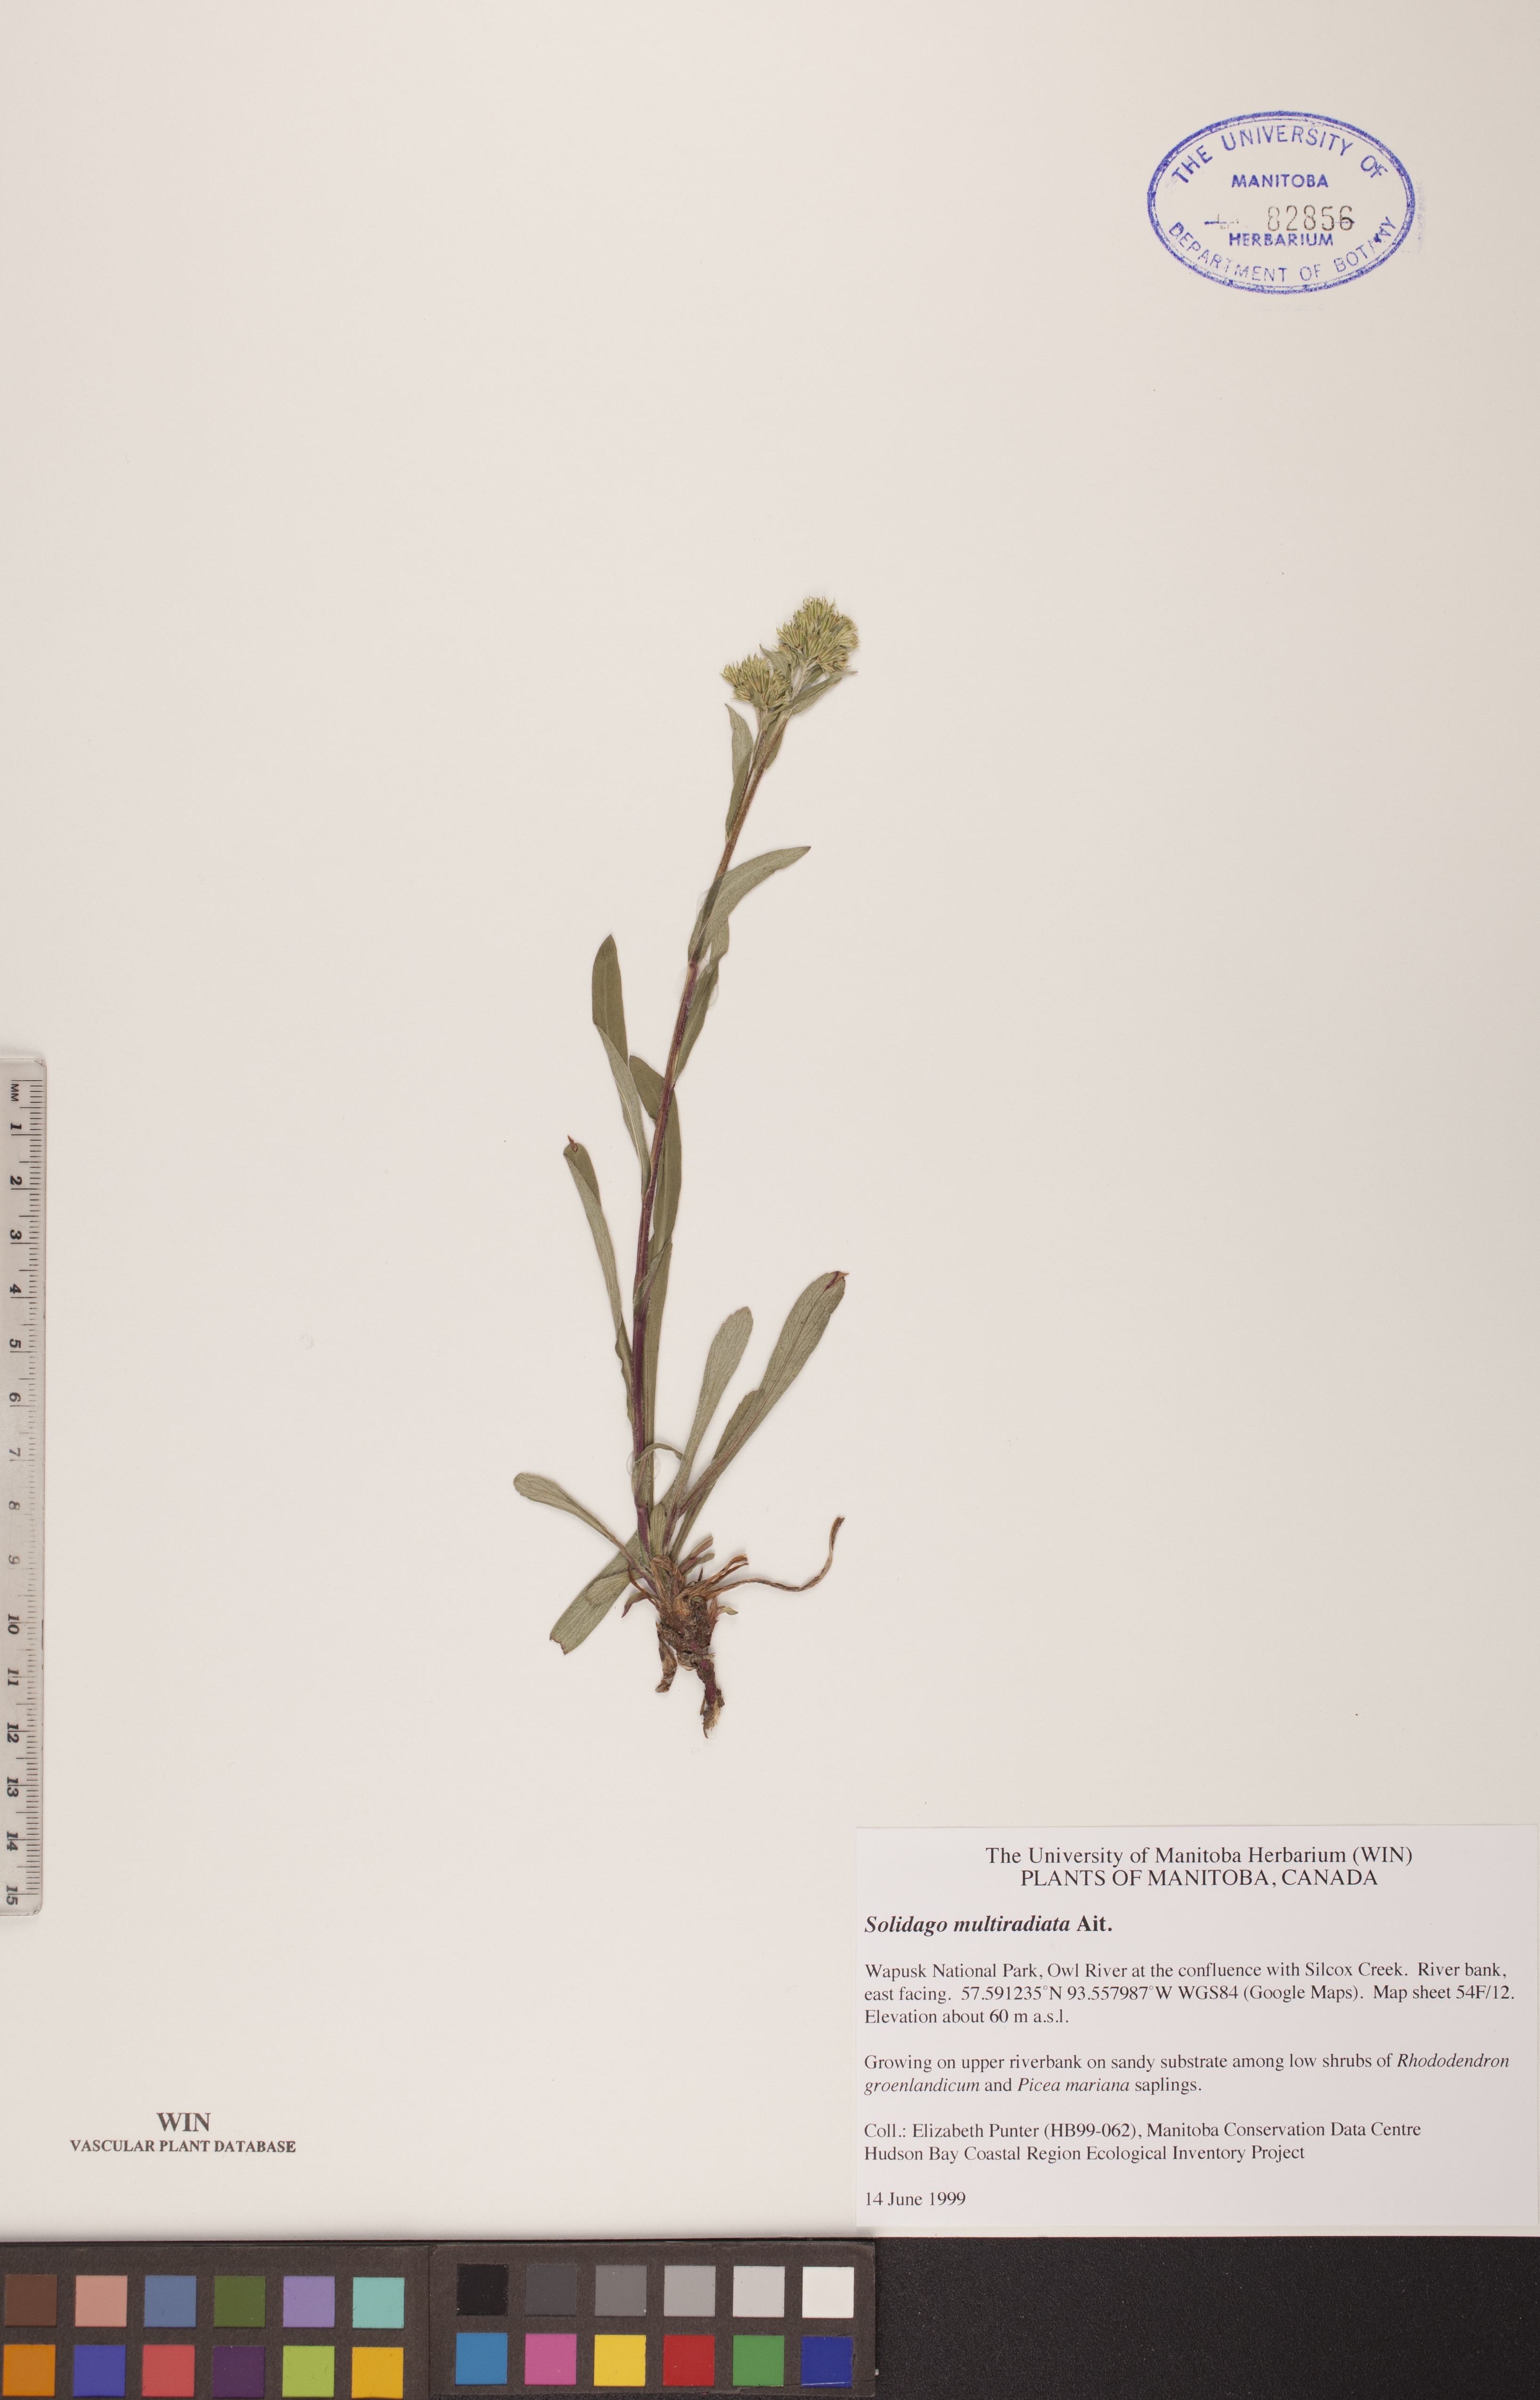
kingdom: Plantae
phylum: Tracheophyta
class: Magnoliopsida
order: Asterales
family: Asteraceae
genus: Solidago
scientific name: Solidago multiradiata
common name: Northern goldenrod
